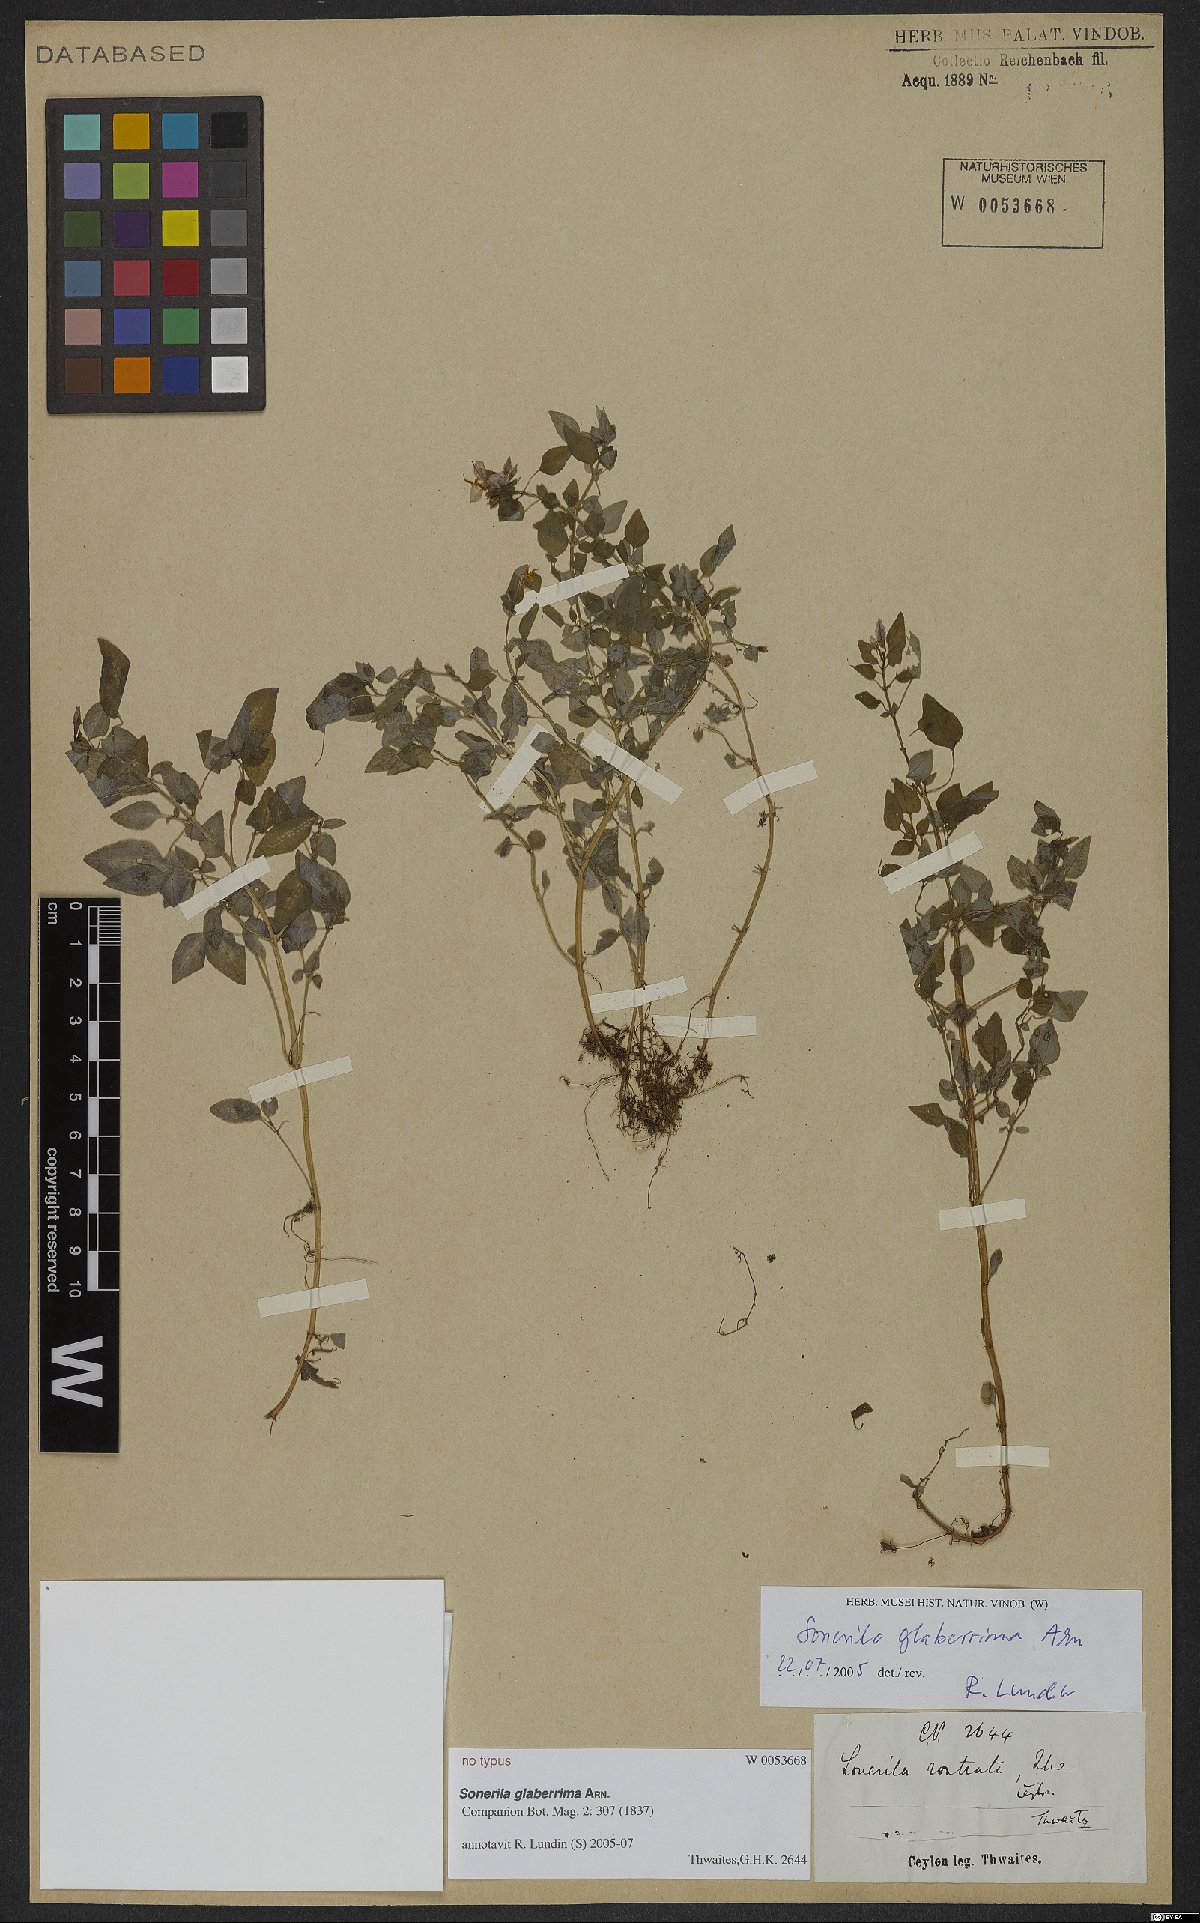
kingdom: Plantae
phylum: Tracheophyta
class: Magnoliopsida
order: Myrtales
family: Melastomataceae
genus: Sonerila
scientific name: Sonerila glaberrima
